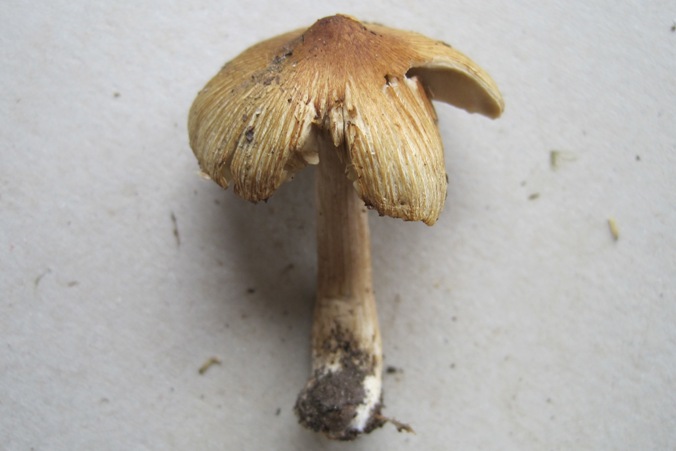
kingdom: Fungi
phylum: Basidiomycota
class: Agaricomycetes
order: Agaricales
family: Inocybaceae
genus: Pseudosperma
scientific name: Pseudosperma rimosum
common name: gulbladet trævlhat
